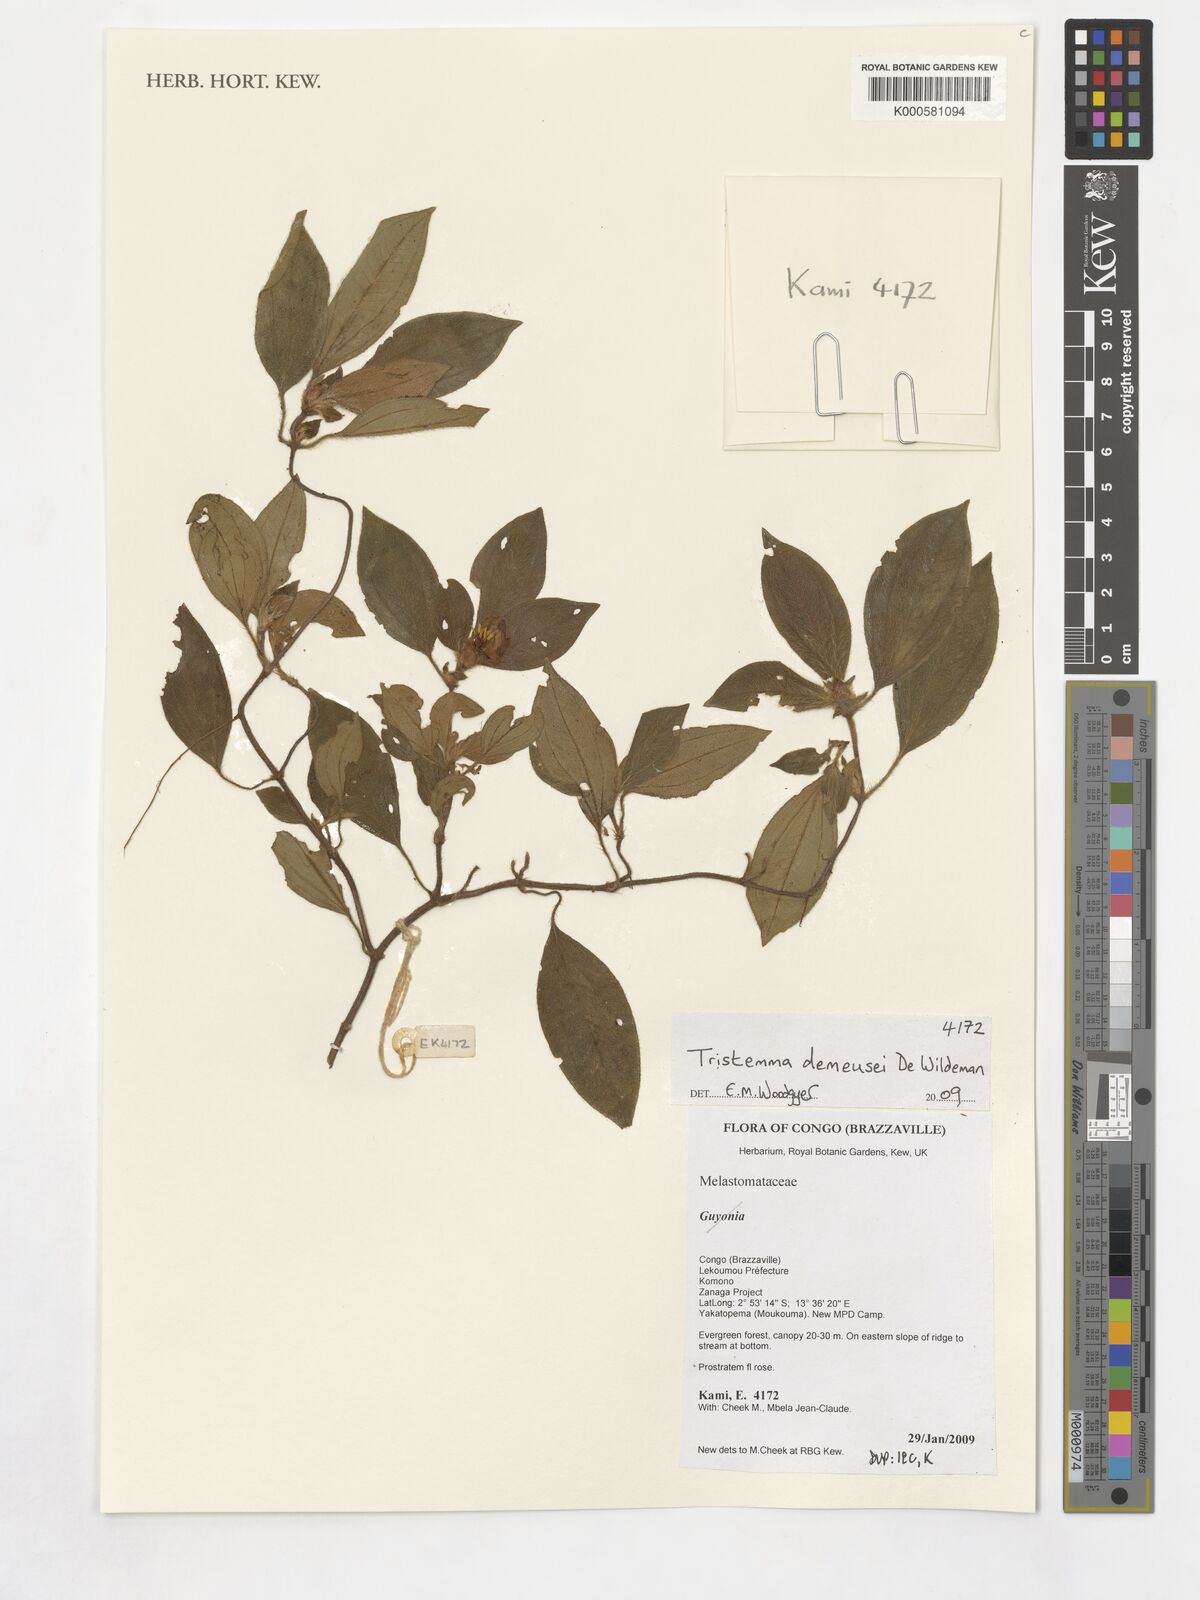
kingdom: Plantae
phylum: Tracheophyta
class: Magnoliopsida
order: Myrtales
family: Melastomataceae
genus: Tristemma
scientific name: Tristemma demeusei
